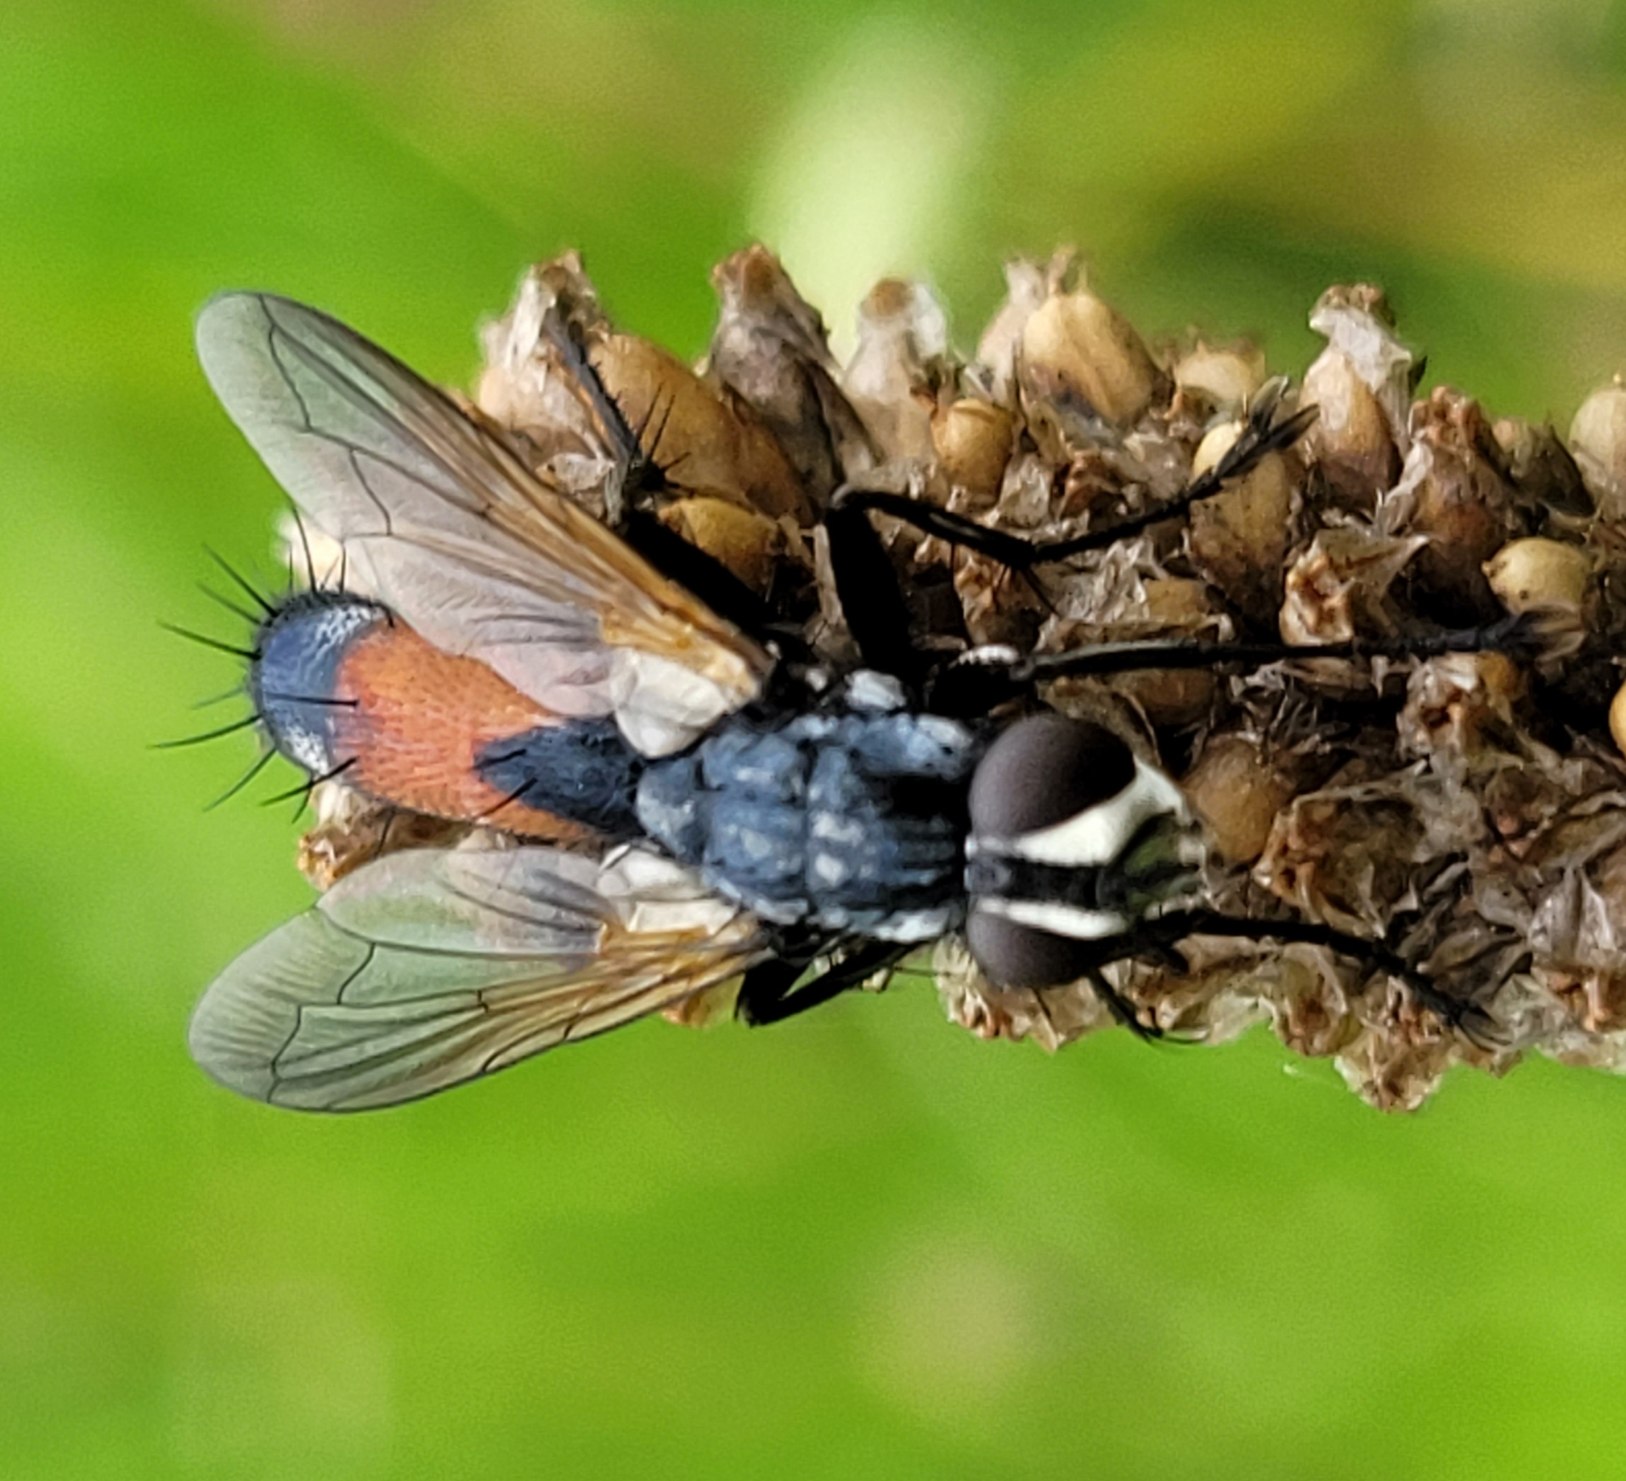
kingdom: Animalia
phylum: Arthropoda
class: Insecta
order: Diptera
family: Tachinidae
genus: Cylindromyia
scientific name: Cylindromyia brassicaria
